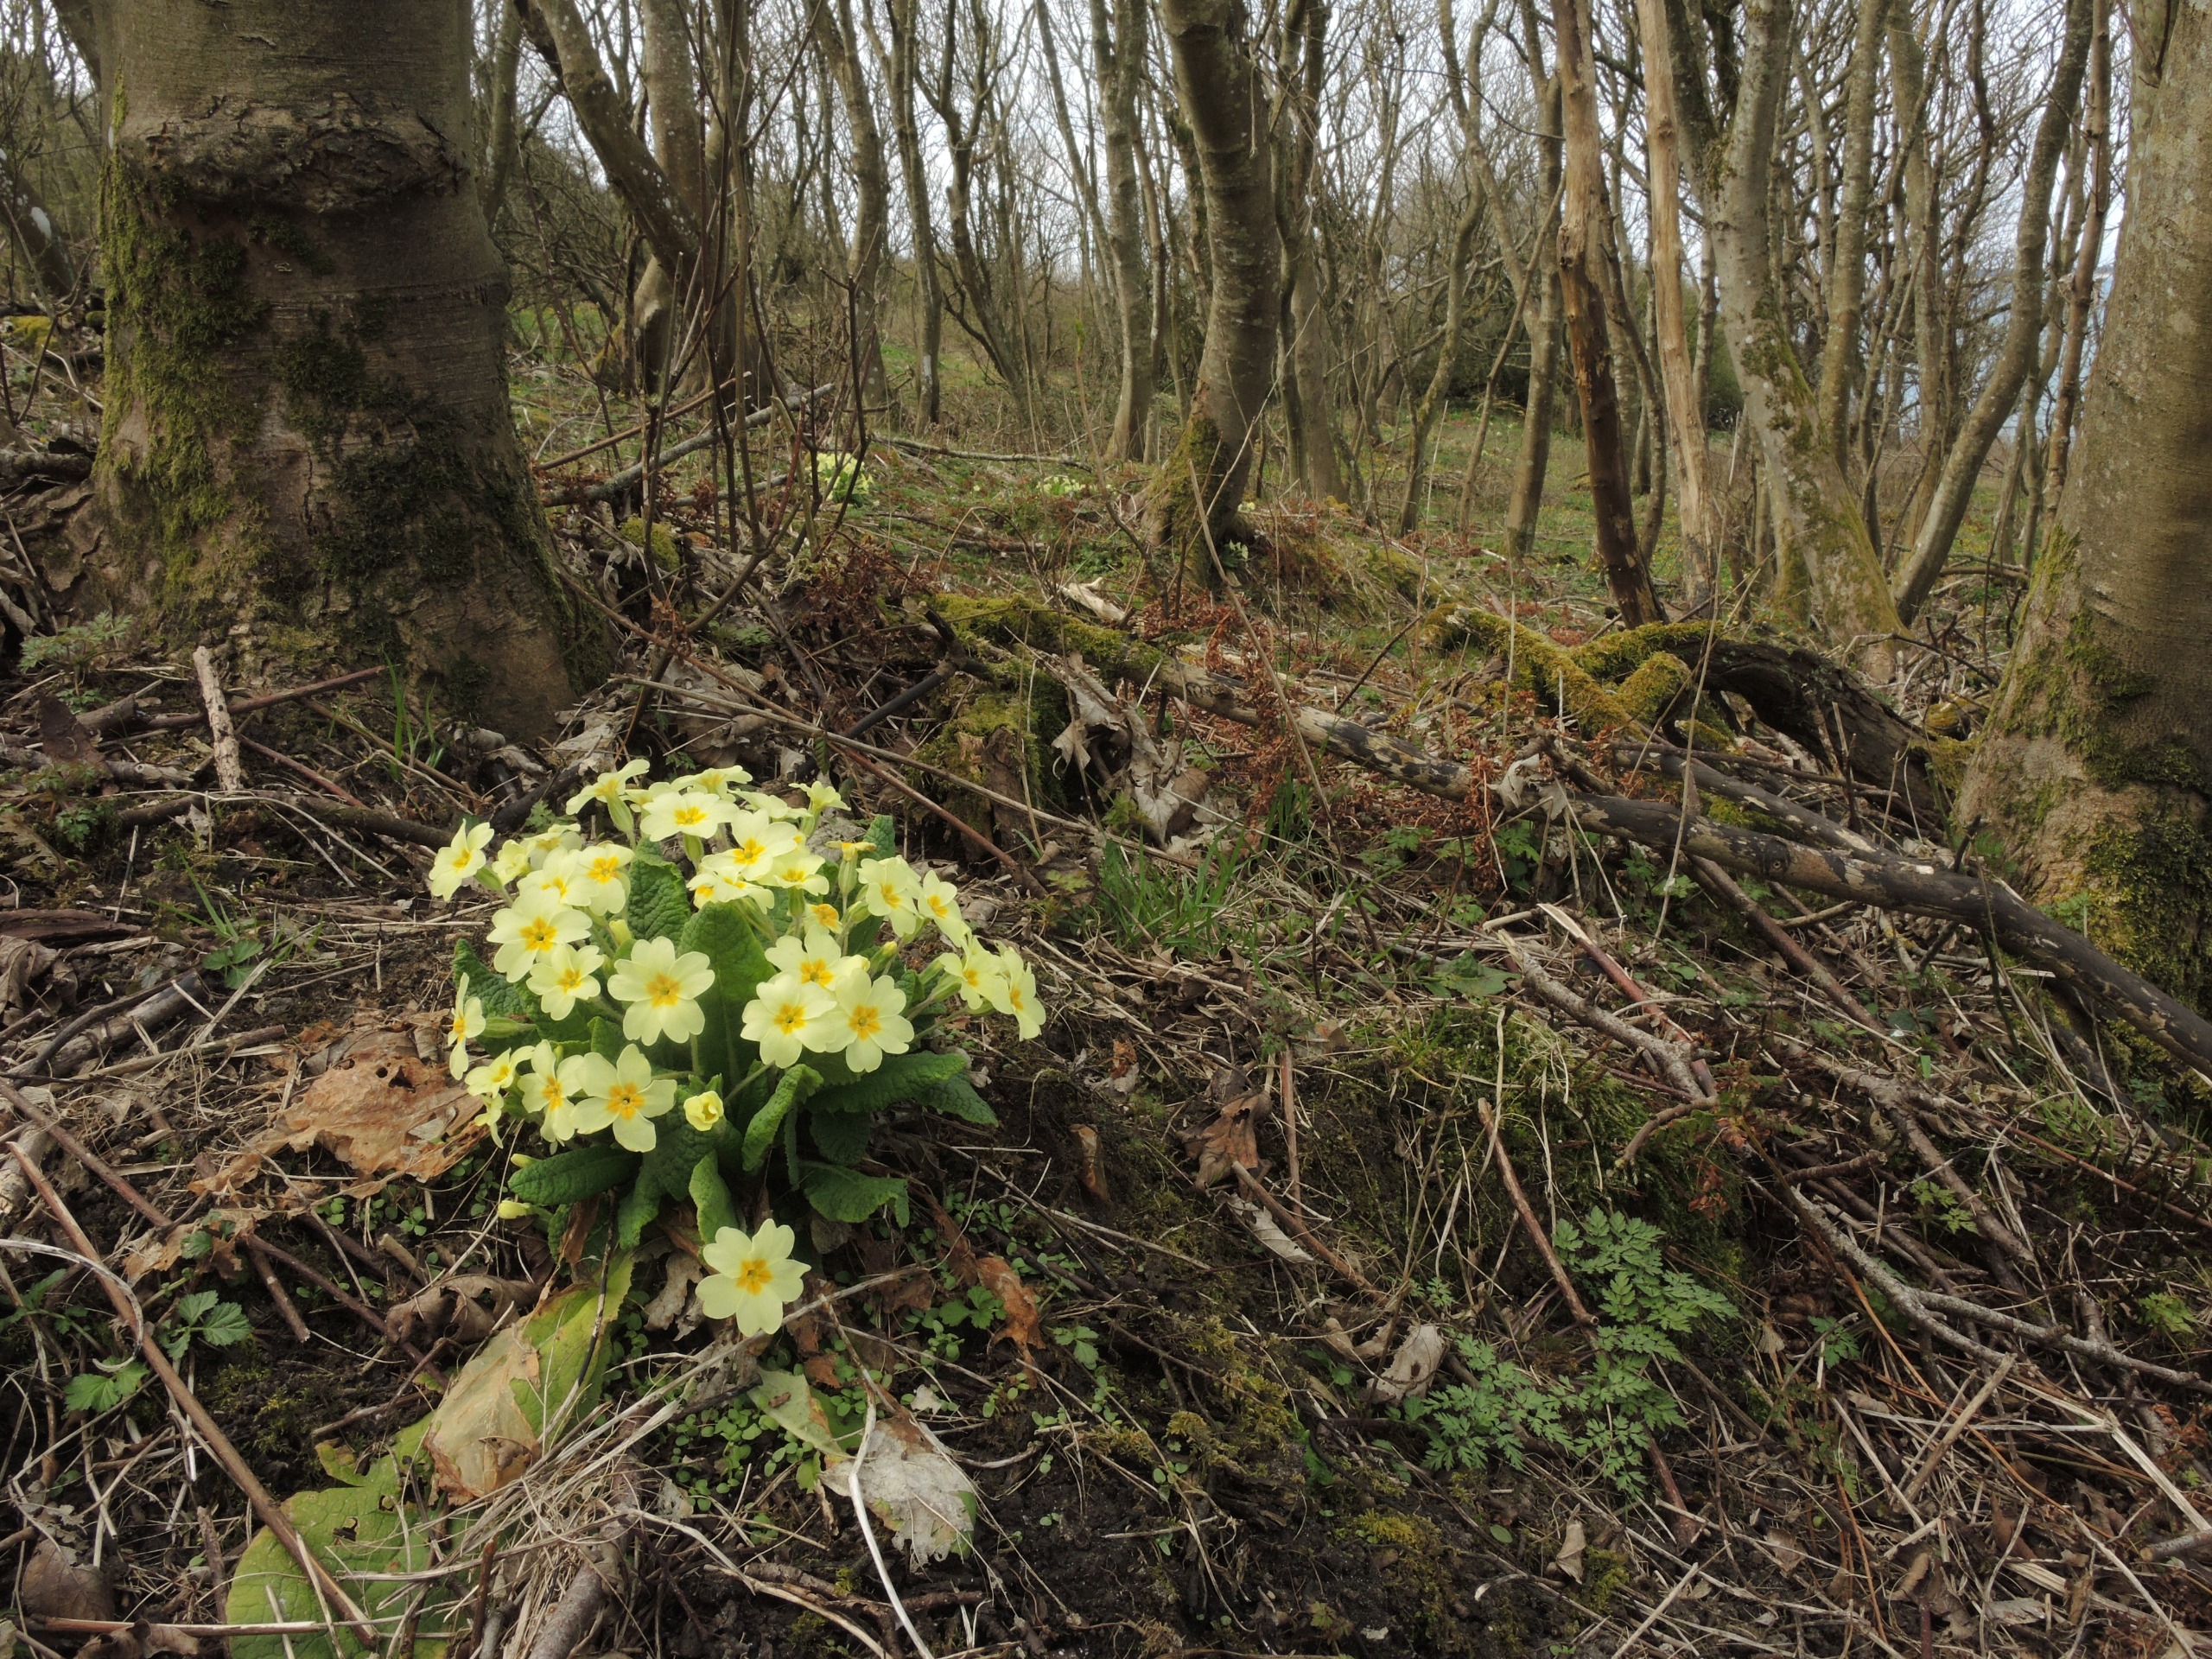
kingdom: Plantae
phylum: Tracheophyta
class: Magnoliopsida
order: Ericales
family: Primulaceae
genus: Primula
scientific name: Primula vulgaris
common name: Storblomstret kodriver
